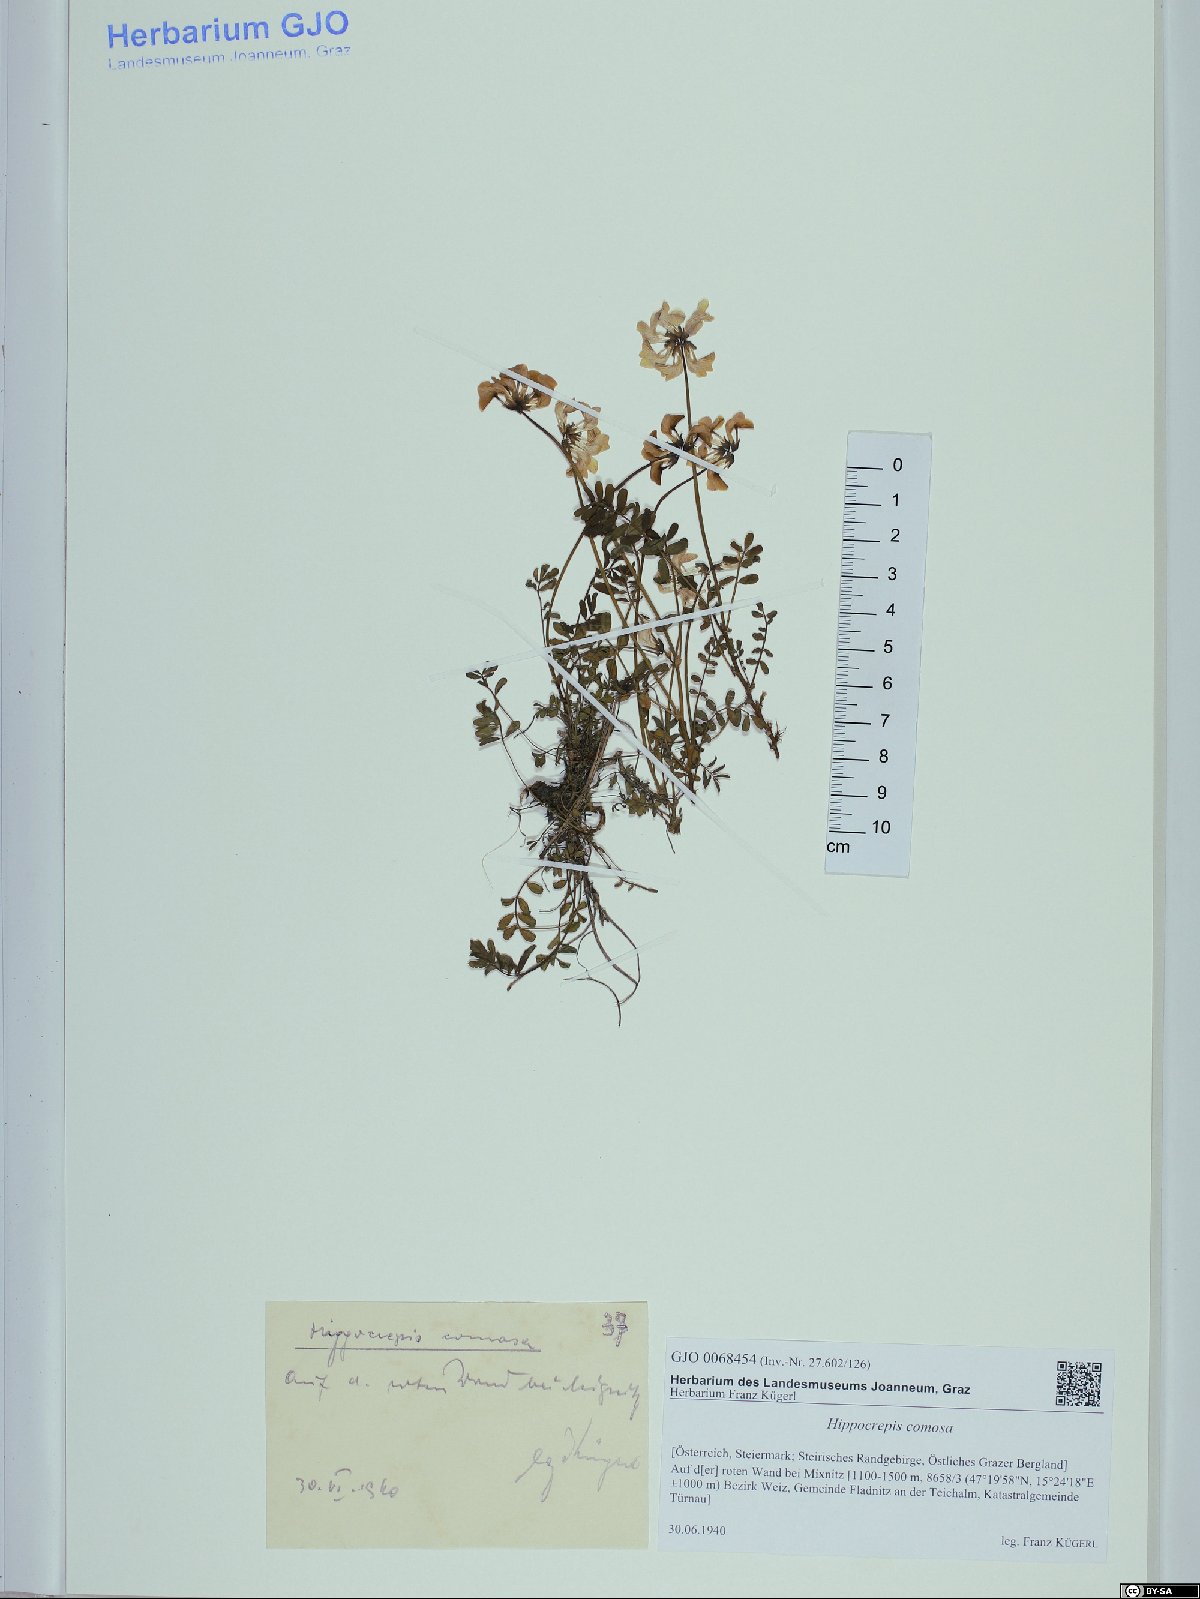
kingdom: Plantae
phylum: Tracheophyta
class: Magnoliopsida
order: Fabales
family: Fabaceae
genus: Hippocrepis
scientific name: Hippocrepis comosa
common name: Horseshoe vetch
